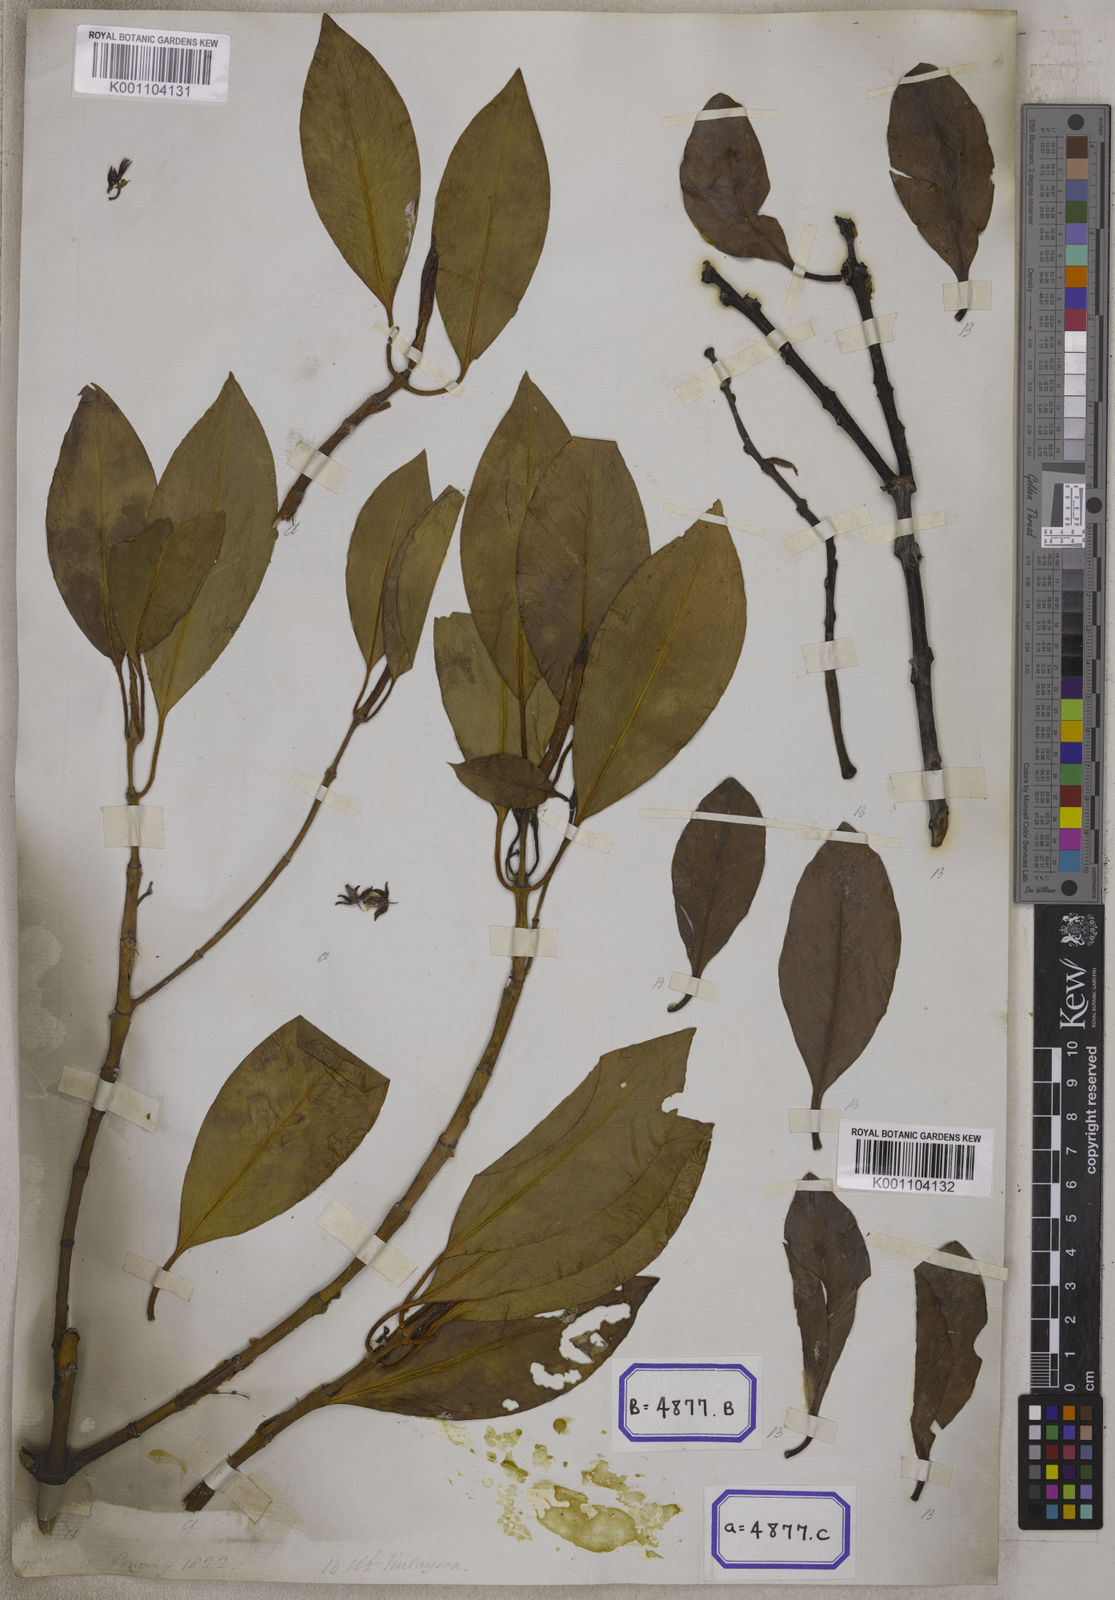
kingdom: Plantae
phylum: Tracheophyta
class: Magnoliopsida
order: Malpighiales
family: Rhizophoraceae
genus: Bruguiera
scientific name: Bruguiera parviflora
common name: Smallflower bruguiera
